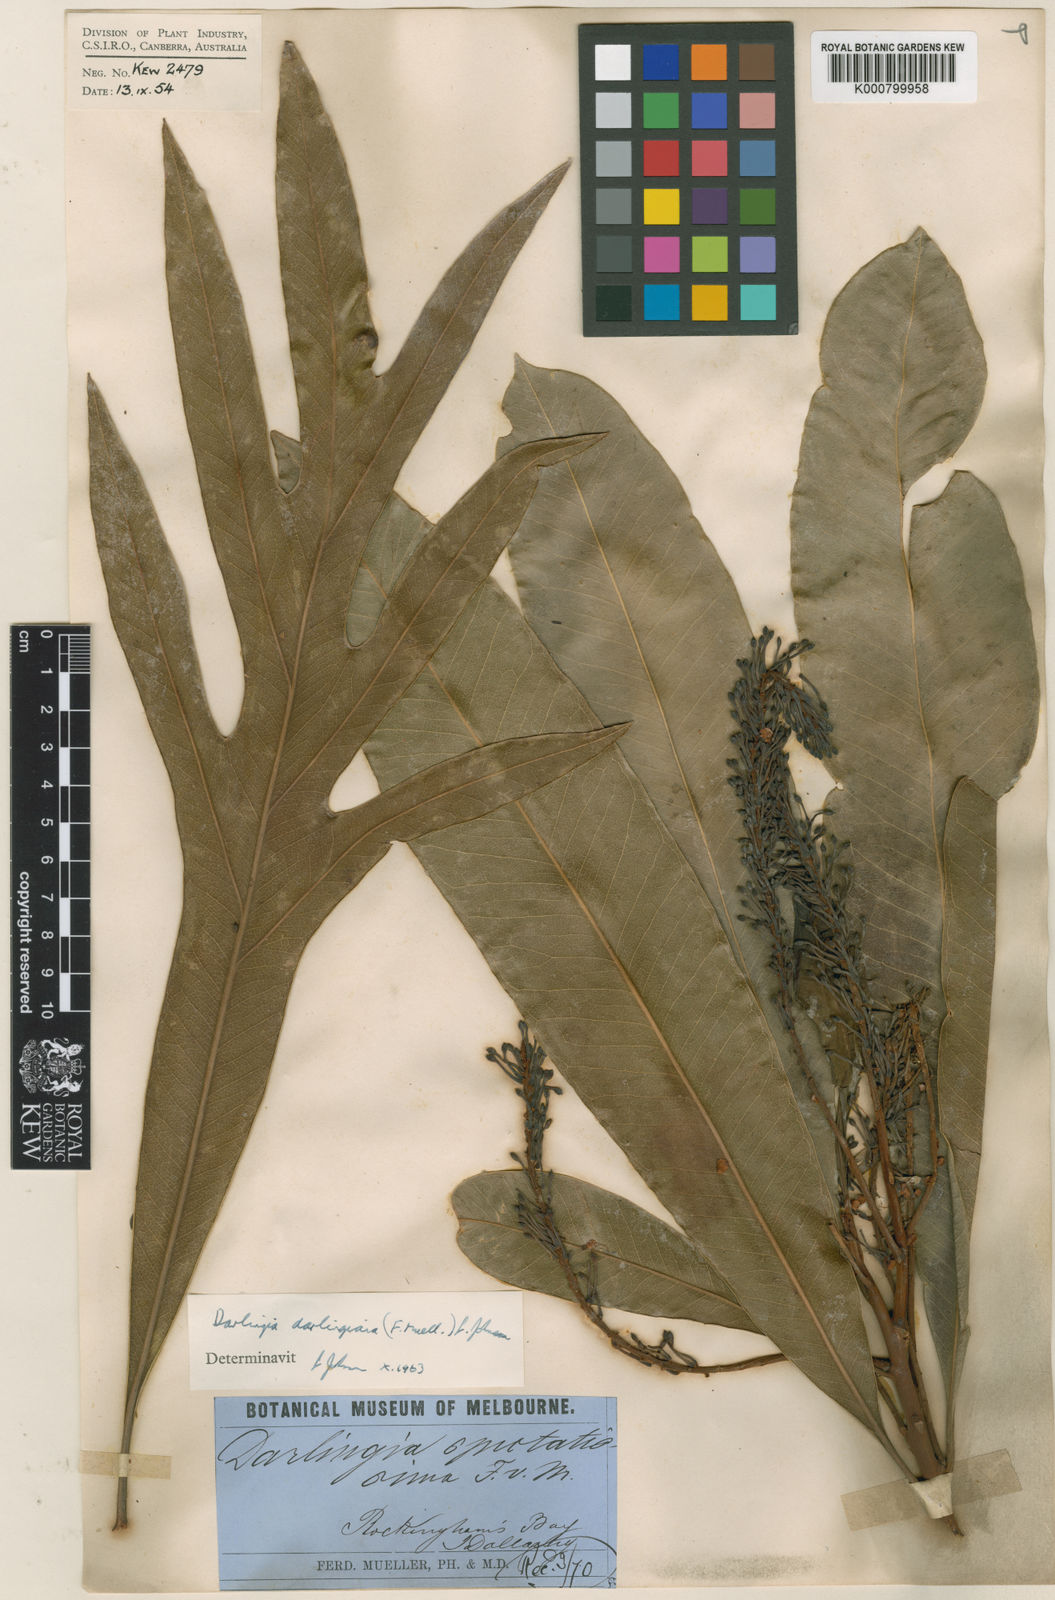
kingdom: Plantae
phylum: Tracheophyta
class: Magnoliopsida
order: Proteales
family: Proteaceae
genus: Darlingia
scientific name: Darlingia darlingiana
